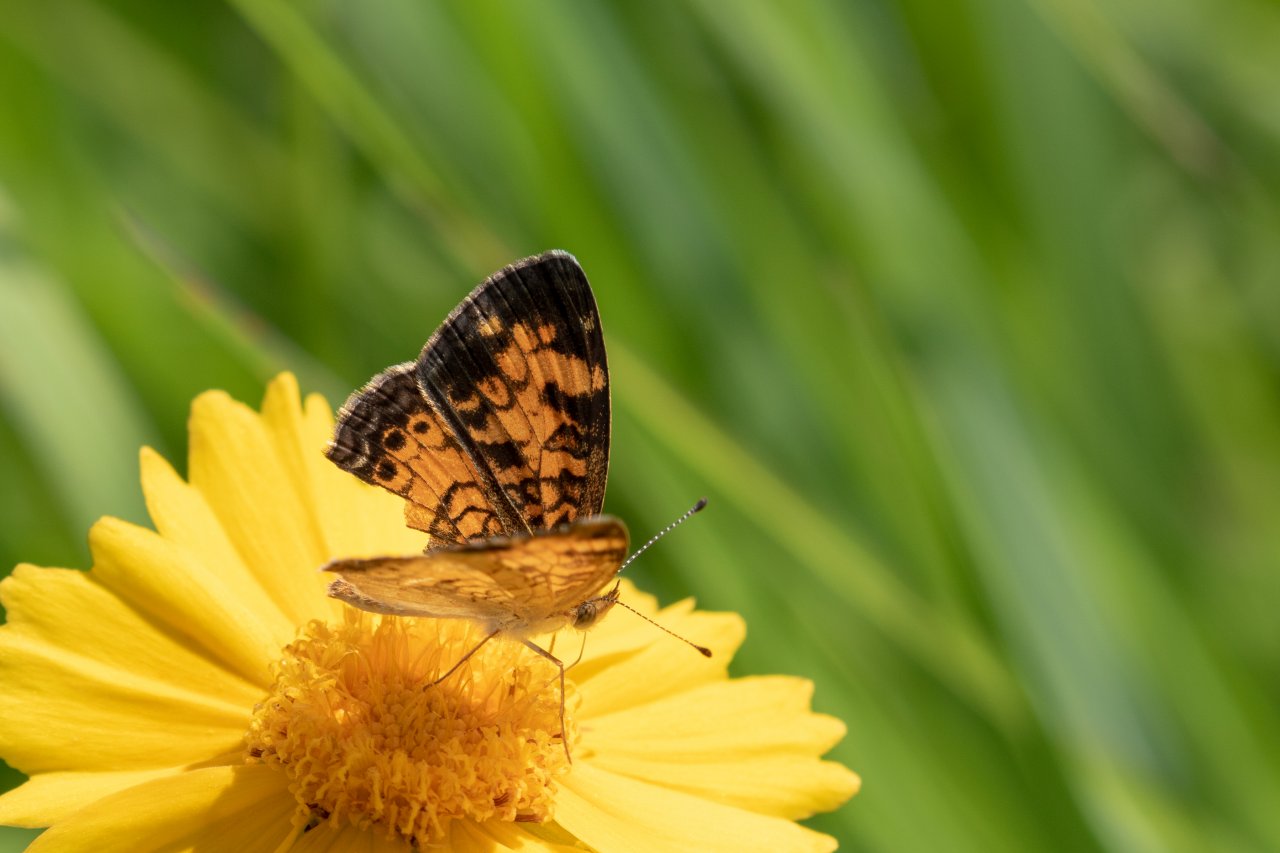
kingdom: Animalia
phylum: Arthropoda
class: Insecta
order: Lepidoptera
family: Nymphalidae
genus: Phyciodes
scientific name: Phyciodes tharos
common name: Pearl Crescent
